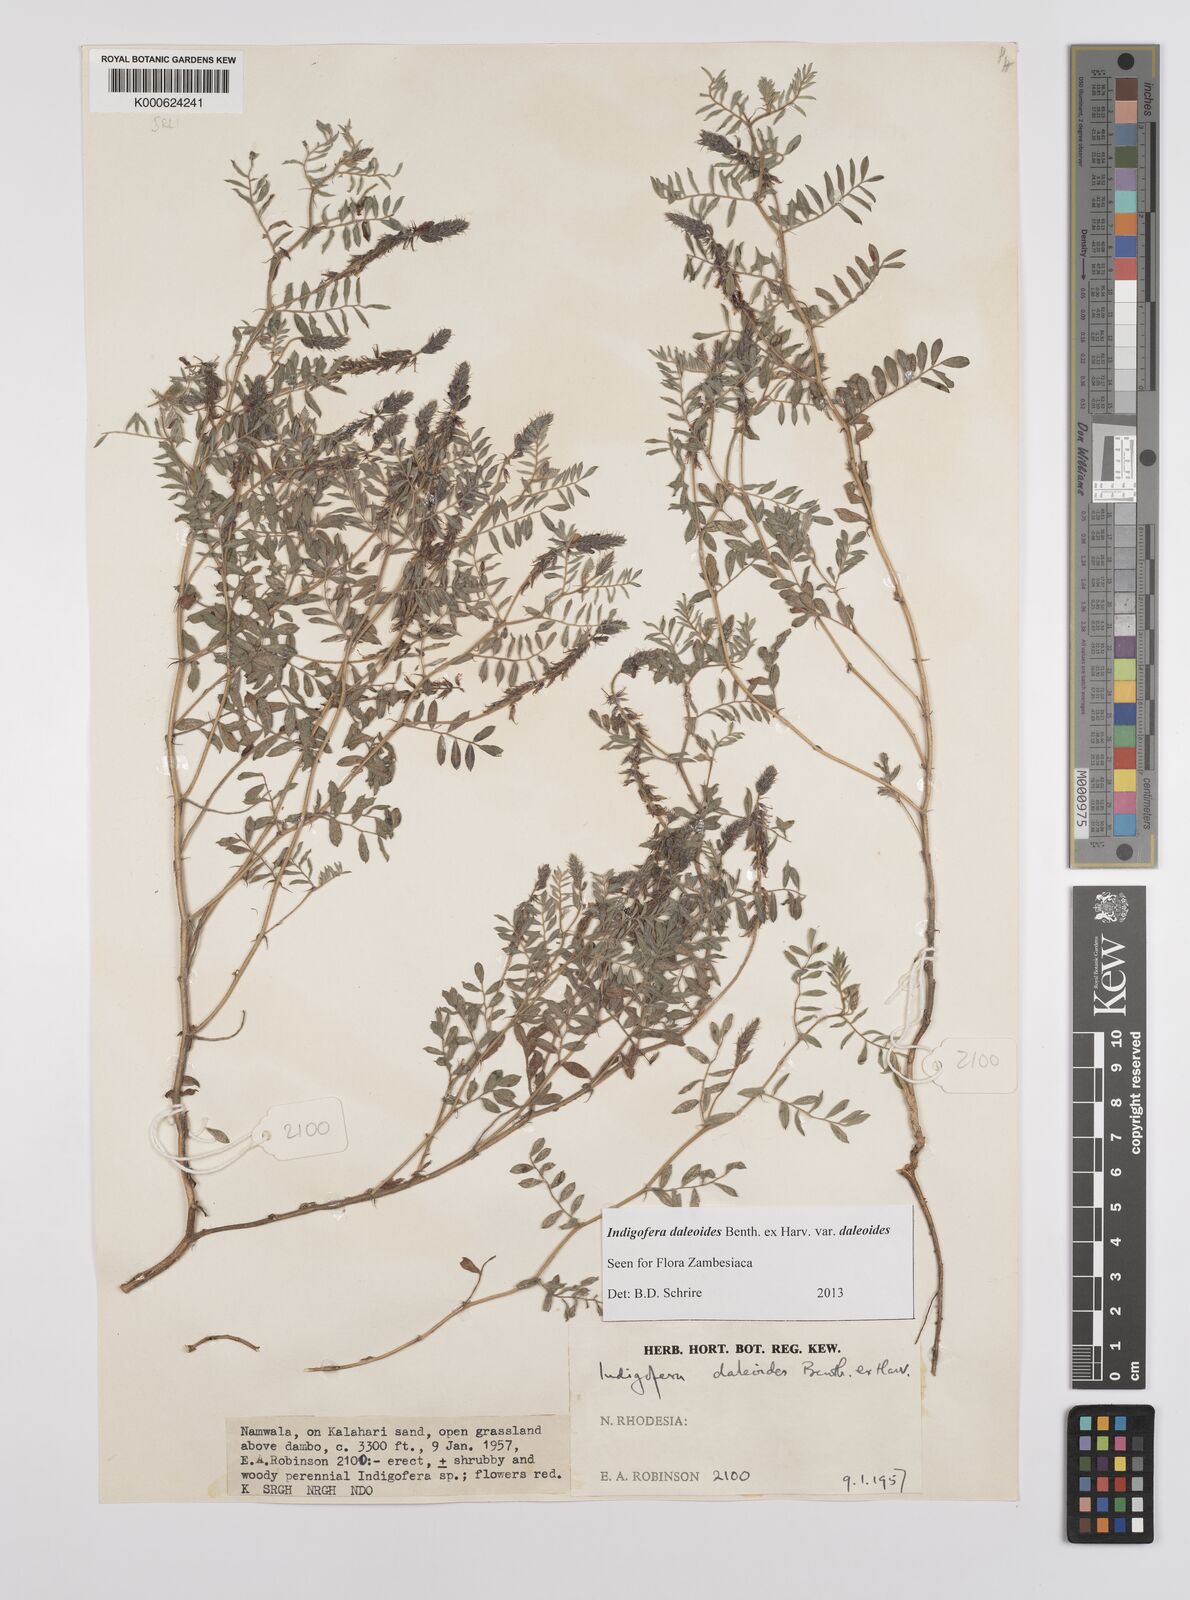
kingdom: Plantae
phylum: Tracheophyta
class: Magnoliopsida
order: Fabales
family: Fabaceae
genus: Indigofera
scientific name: Indigofera daleoides
